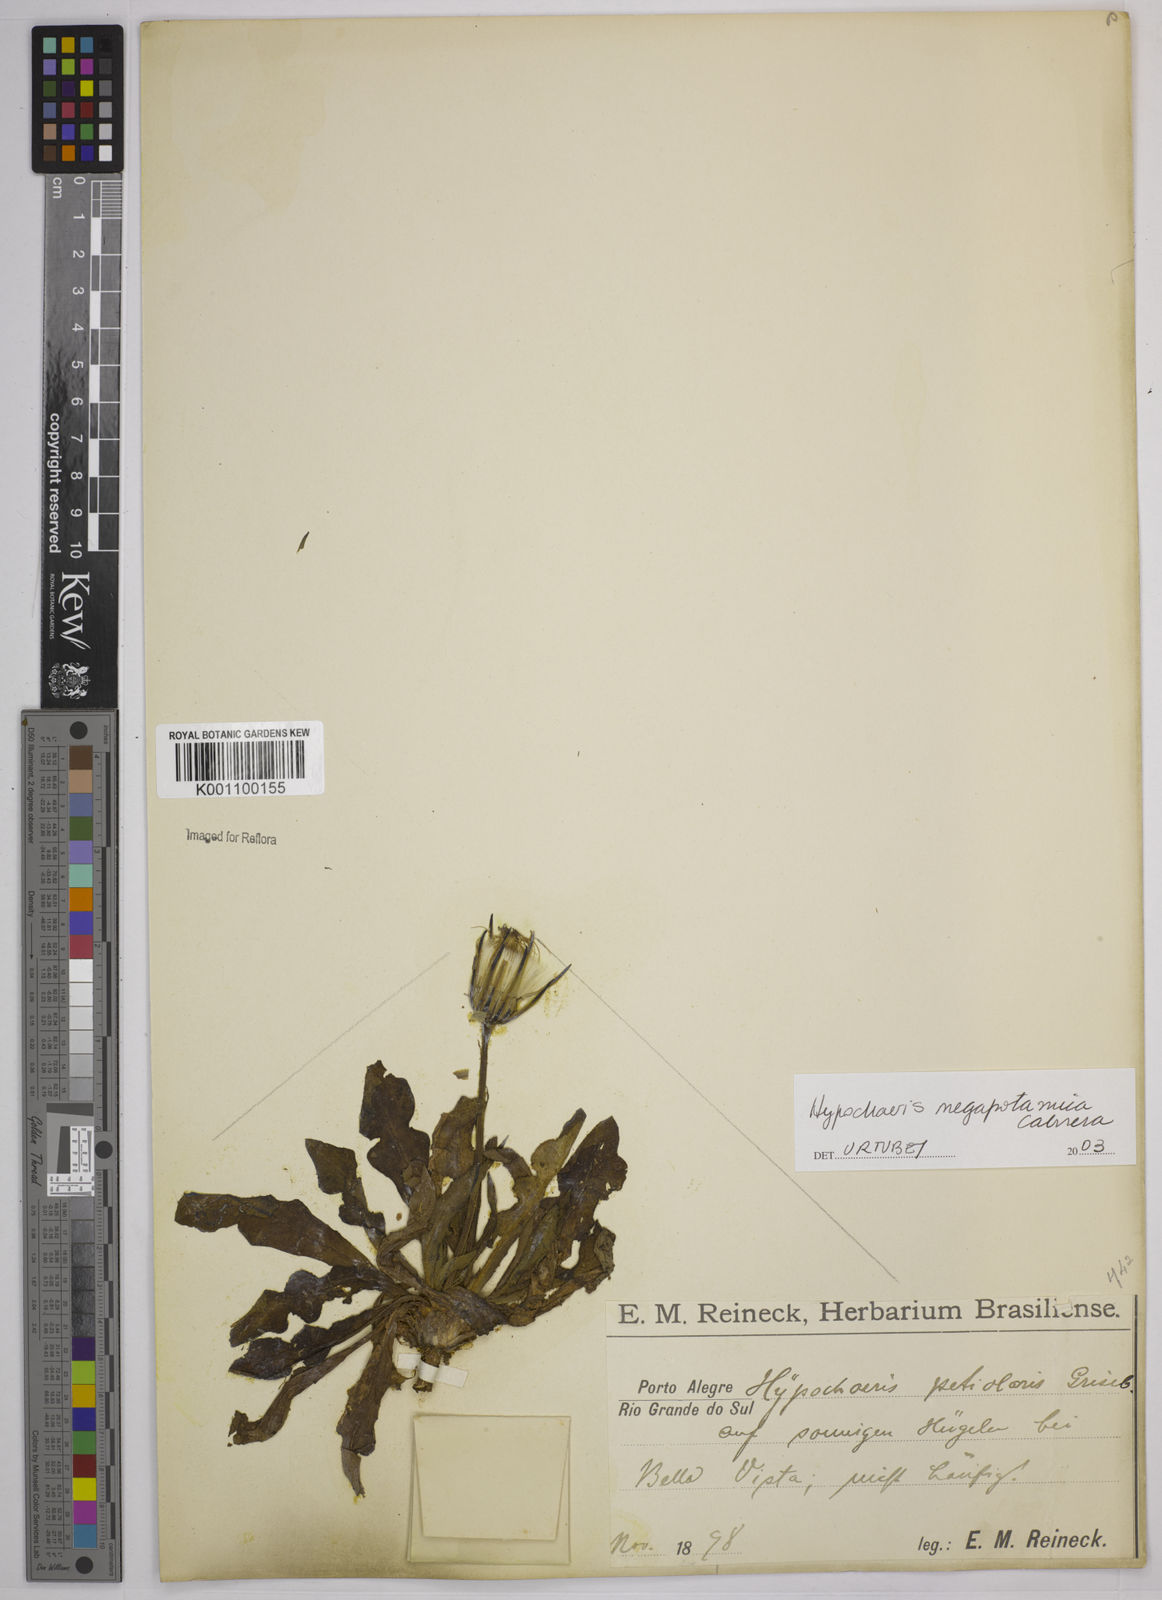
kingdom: Plantae
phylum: Tracheophyta
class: Magnoliopsida
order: Asterales
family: Asteraceae
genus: Hypochaeris
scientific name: Hypochaeris megapotamica
